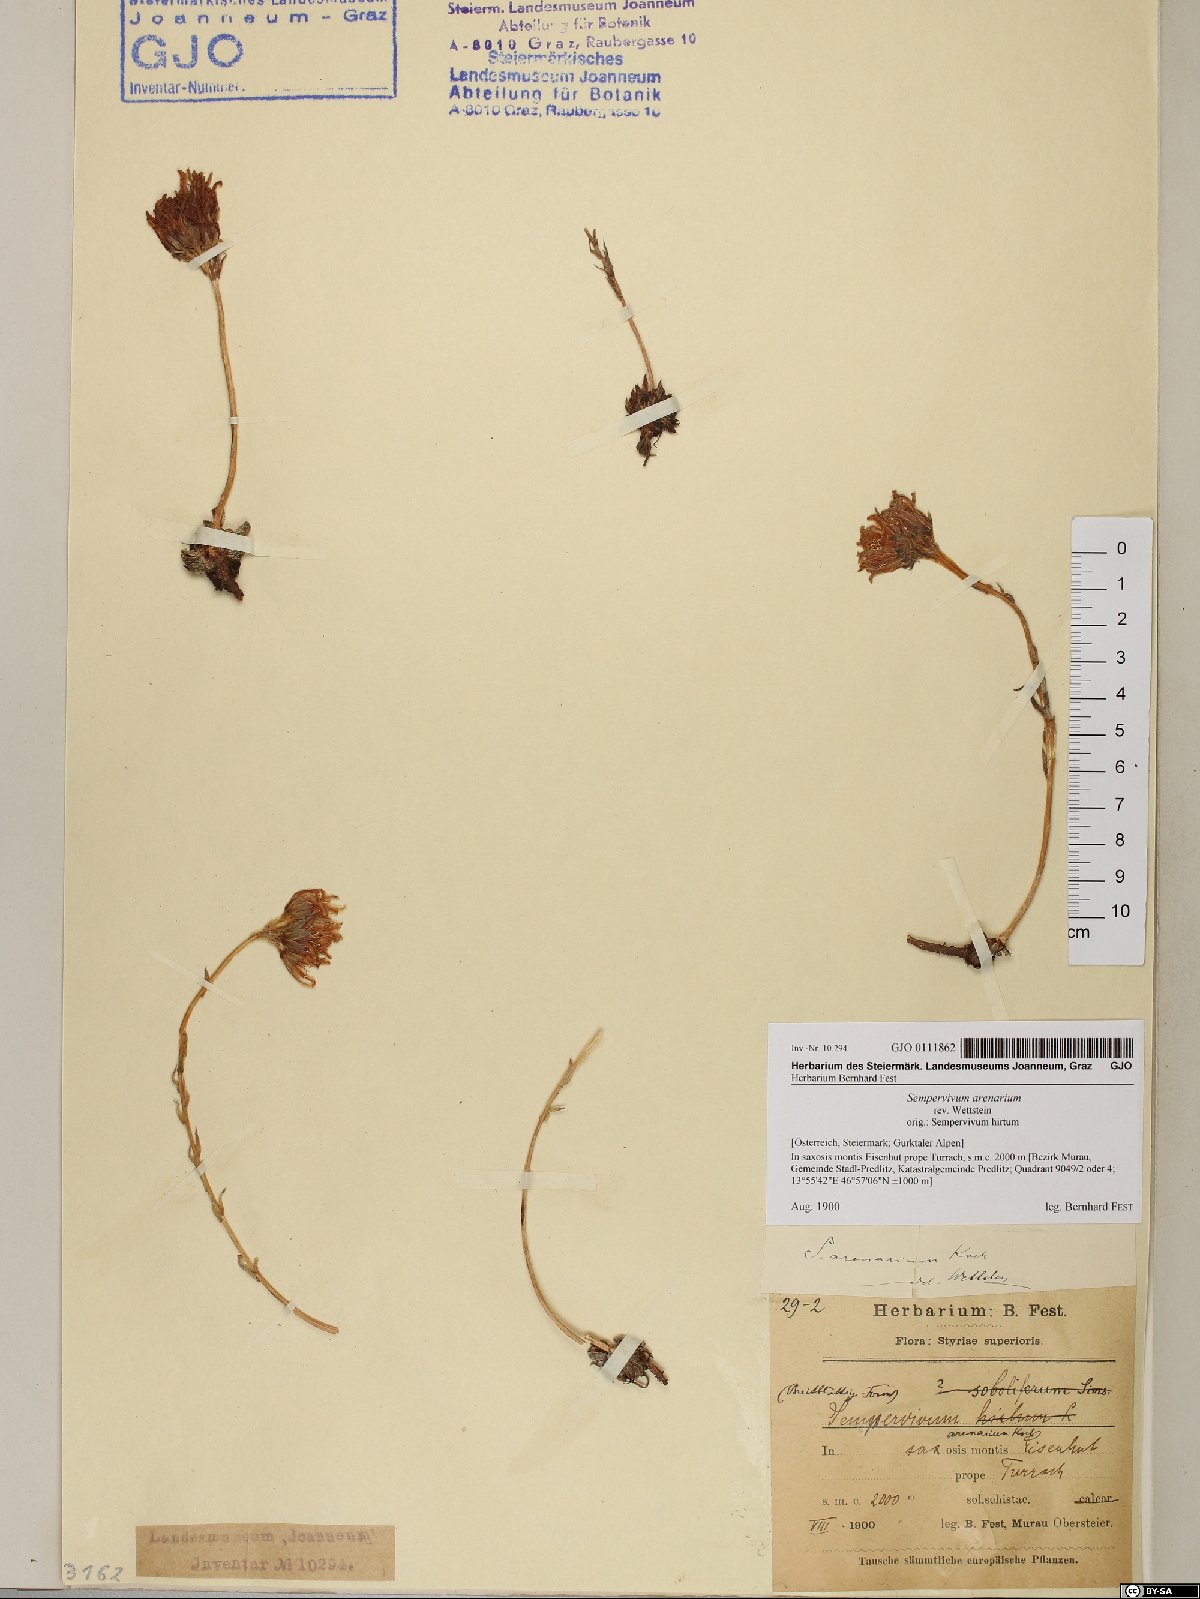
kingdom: Plantae
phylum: Tracheophyta
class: Magnoliopsida
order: Saxifragales
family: Crassulaceae
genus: Sempervivum
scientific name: Sempervivum globiferum
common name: Rolling hen-and-chicks
